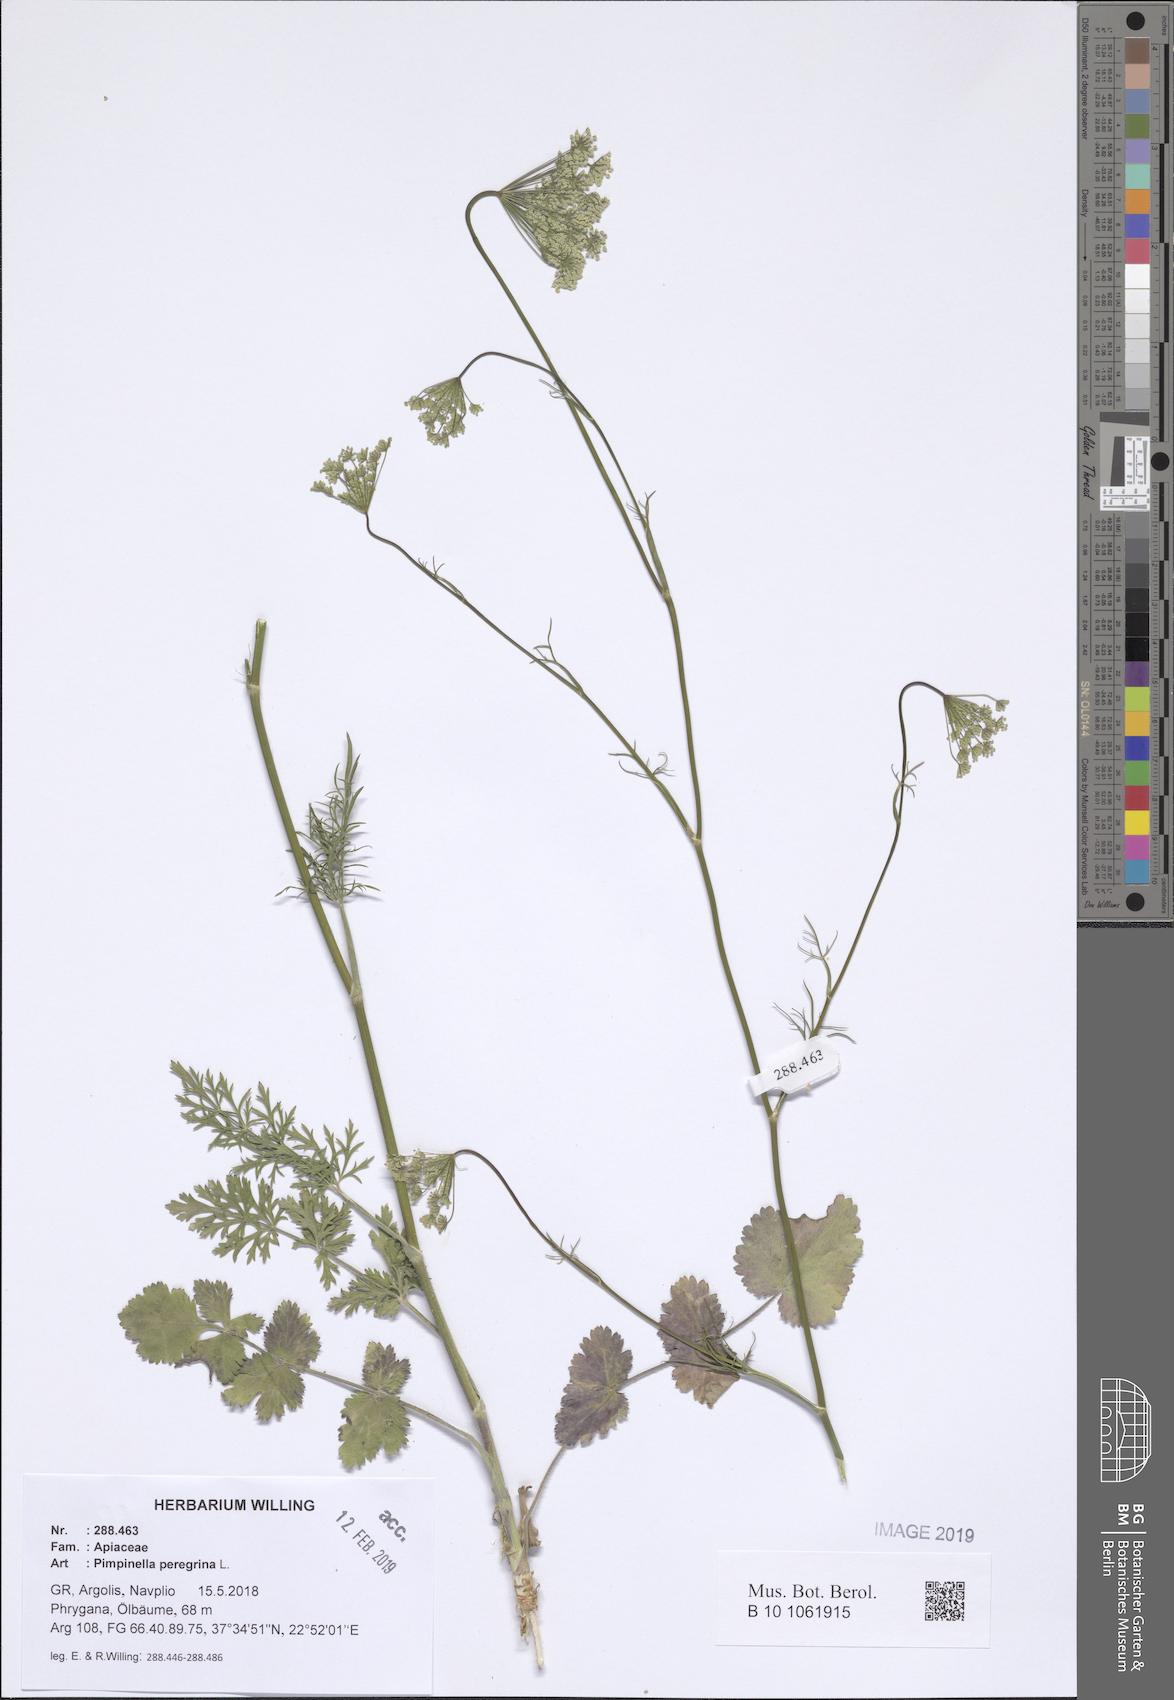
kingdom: Plantae
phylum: Tracheophyta
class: Magnoliopsida
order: Apiales
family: Apiaceae
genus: Pimpinella
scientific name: Pimpinella peregrina
